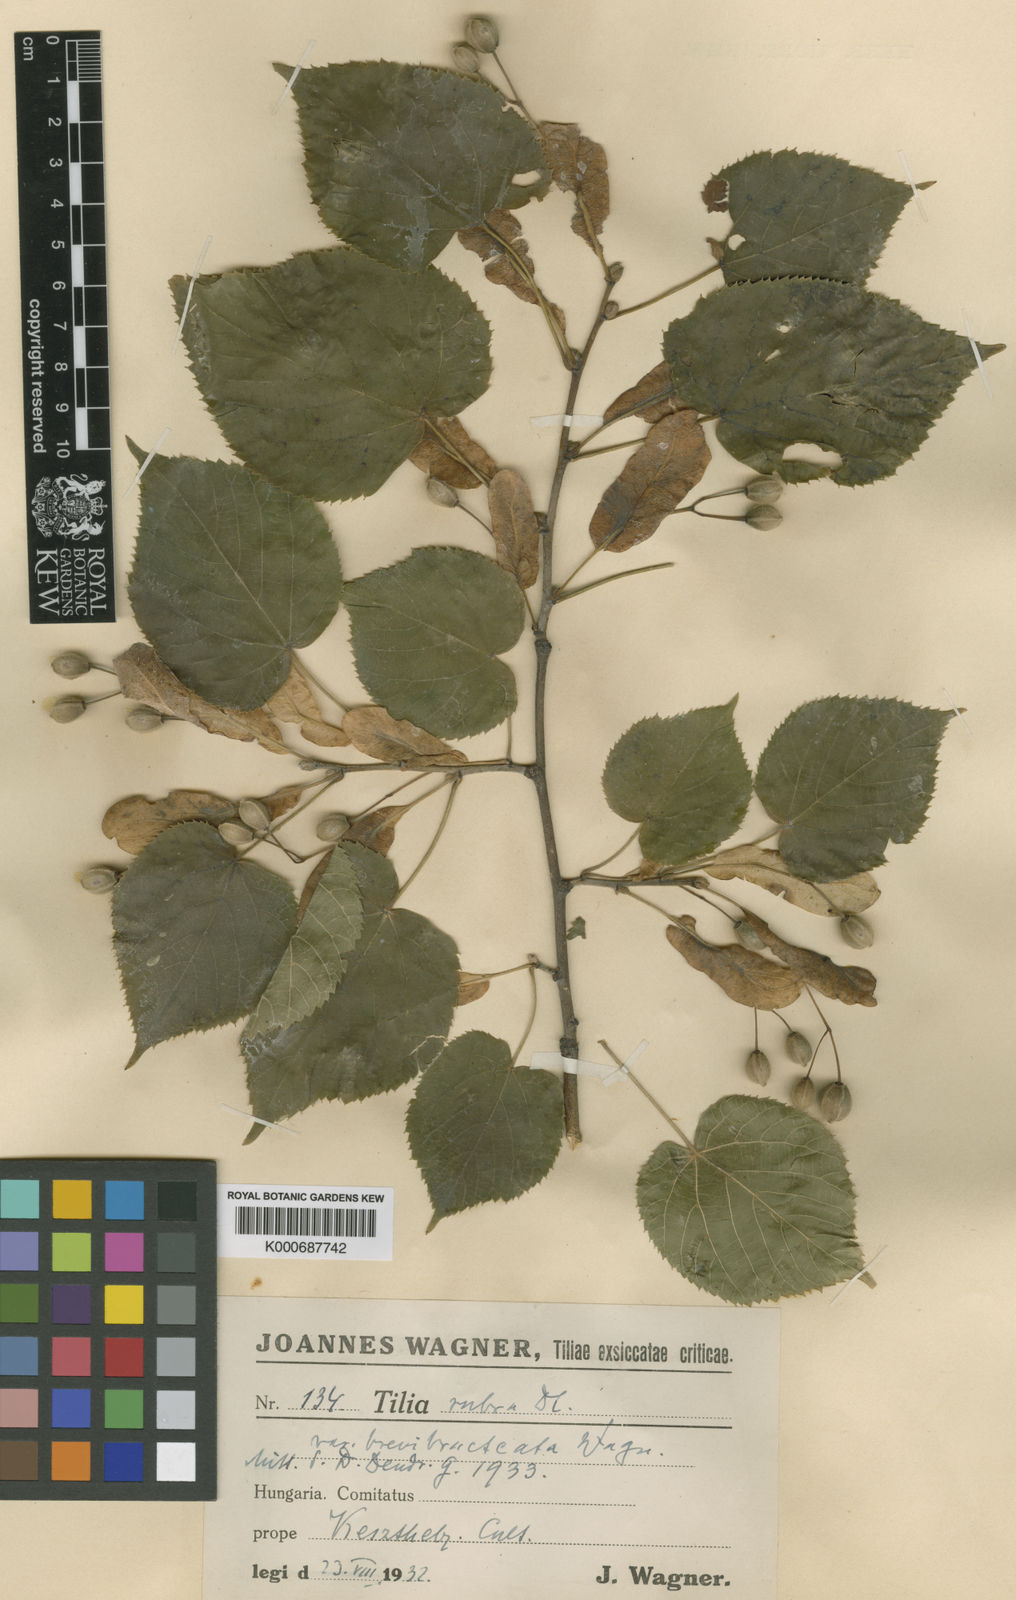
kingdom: Plantae
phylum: Tracheophyta
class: Magnoliopsida
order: Malvales
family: Malvaceae
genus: Tilia
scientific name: Tilia platyphyllos
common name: Large-leaved lime
